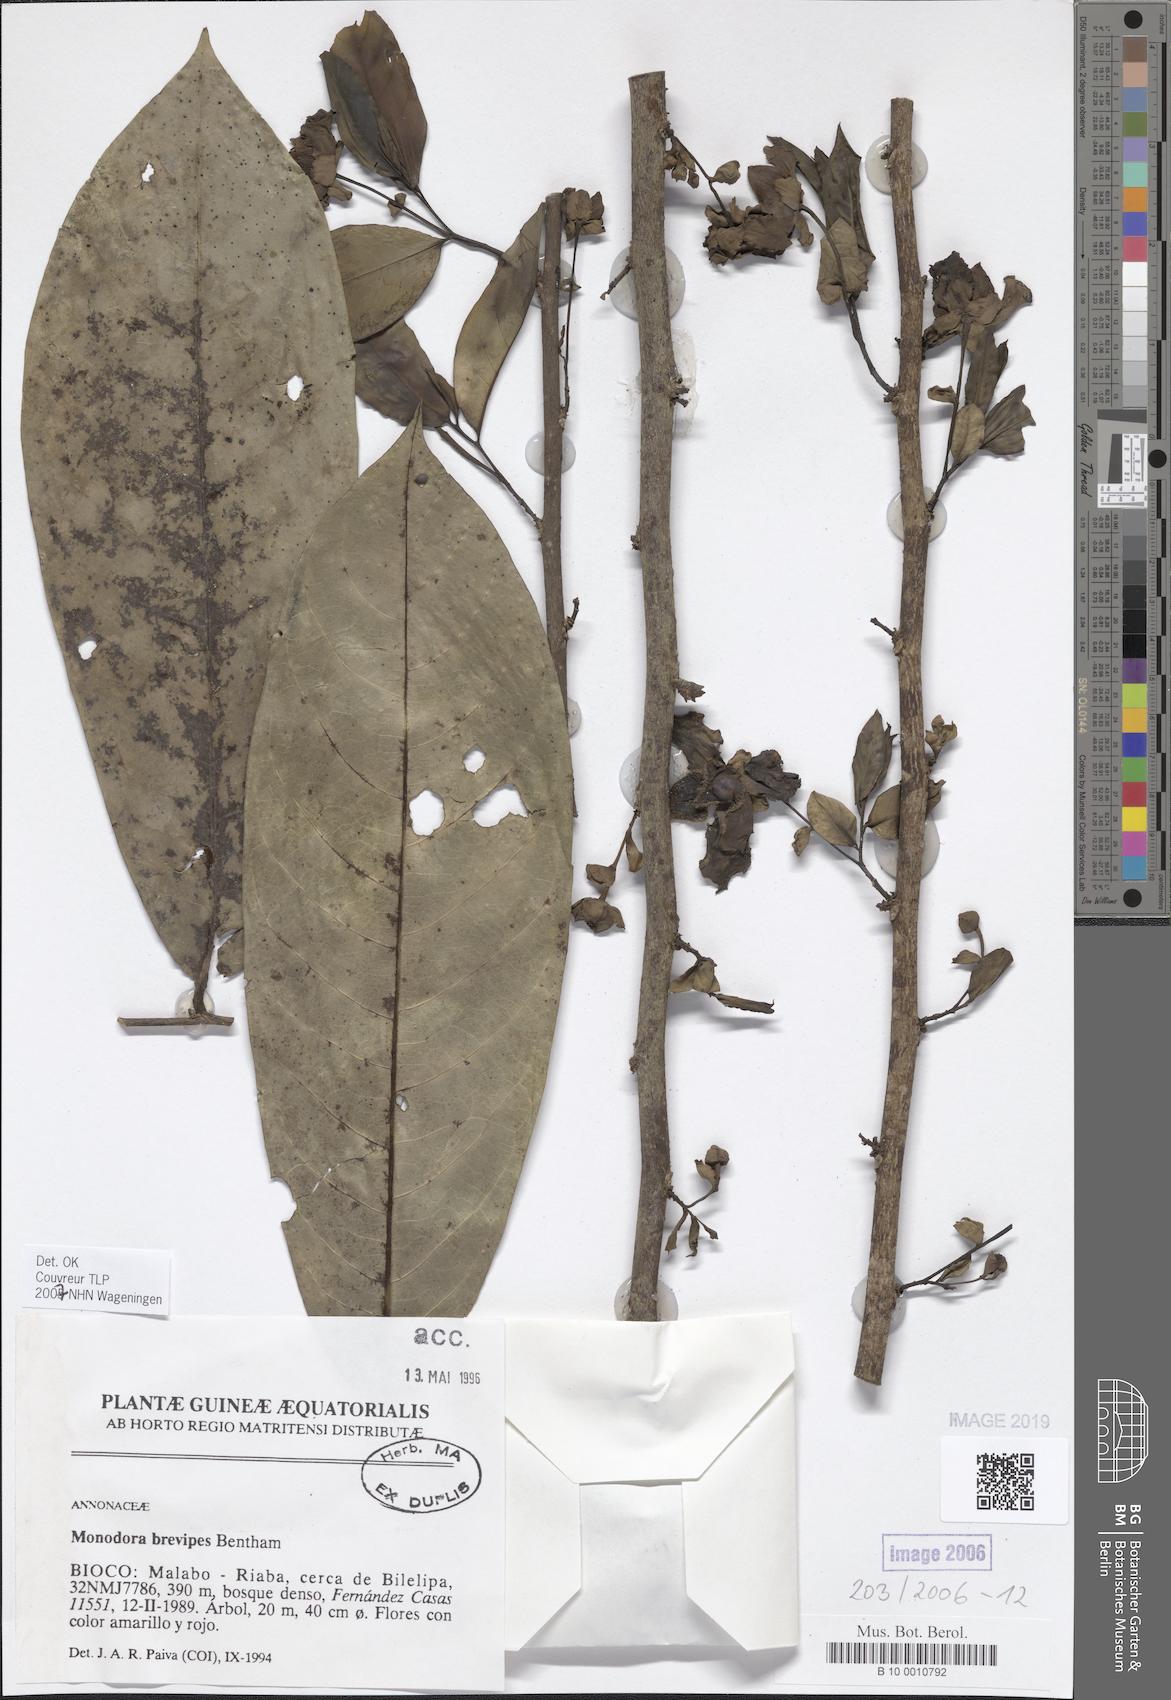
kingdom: Plantae
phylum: Tracheophyta
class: Magnoliopsida
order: Magnoliales
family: Annonaceae
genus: Monodora
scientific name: Monodora undulata
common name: Yellow-flower-nutmeg
